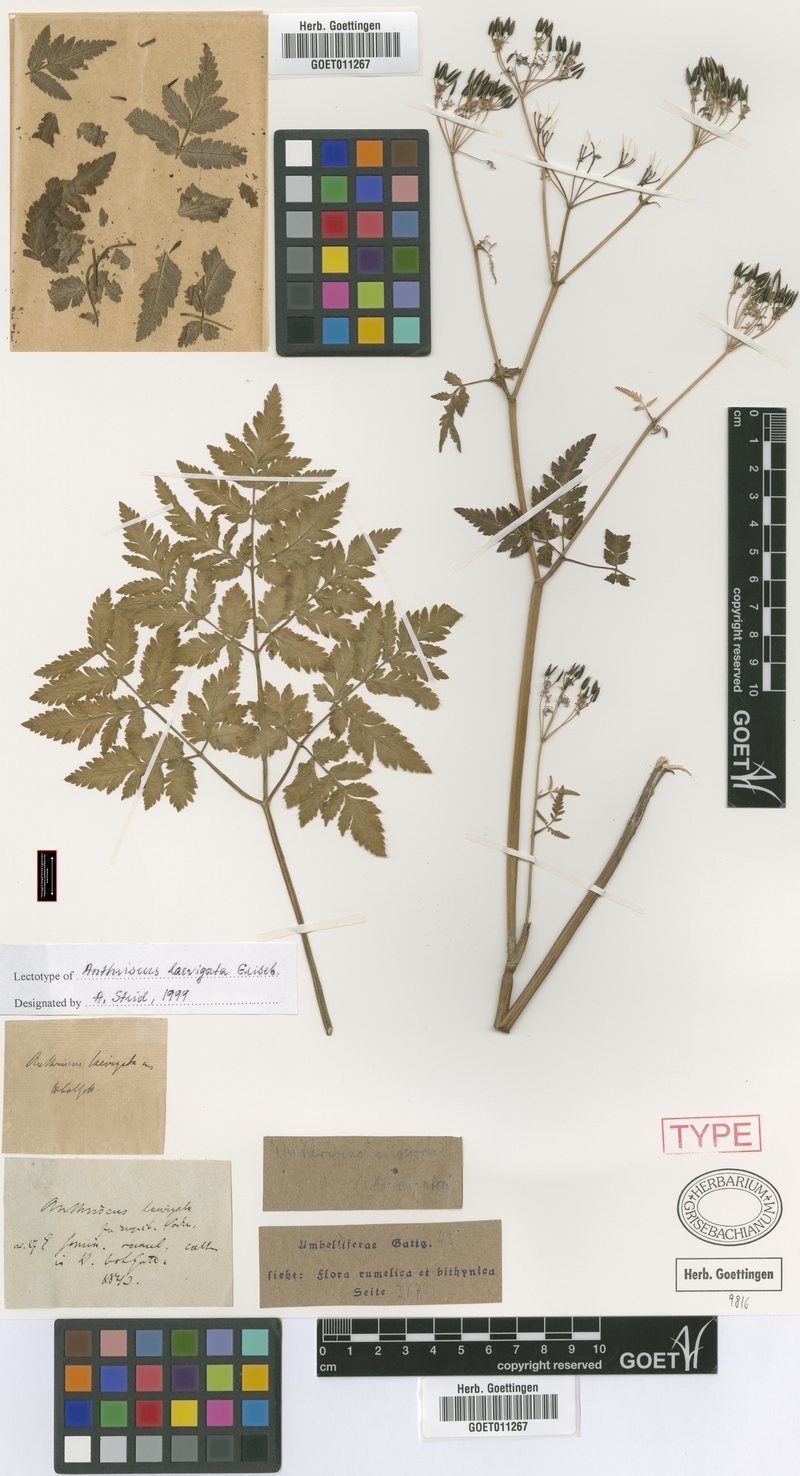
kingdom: Plantae
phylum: Tracheophyta
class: Magnoliopsida
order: Apiales
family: Apiaceae
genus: Anthriscus
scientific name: Anthriscus sylvestris
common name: Cow parsley
